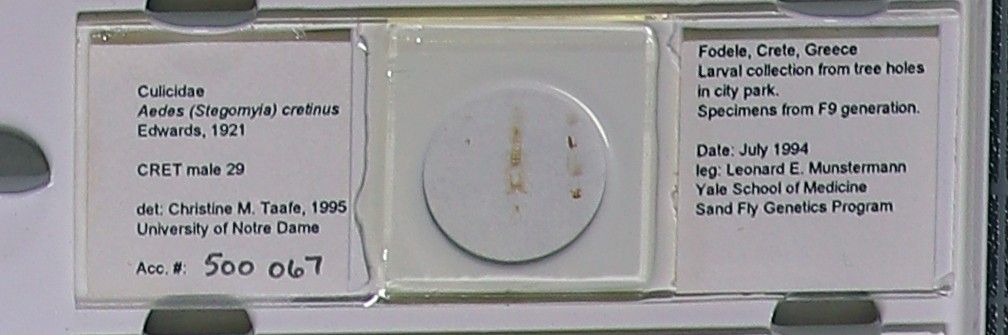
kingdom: Animalia
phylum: Arthropoda
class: Insecta
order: Diptera
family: Culicidae
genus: Aedes
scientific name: Aedes cretinus
